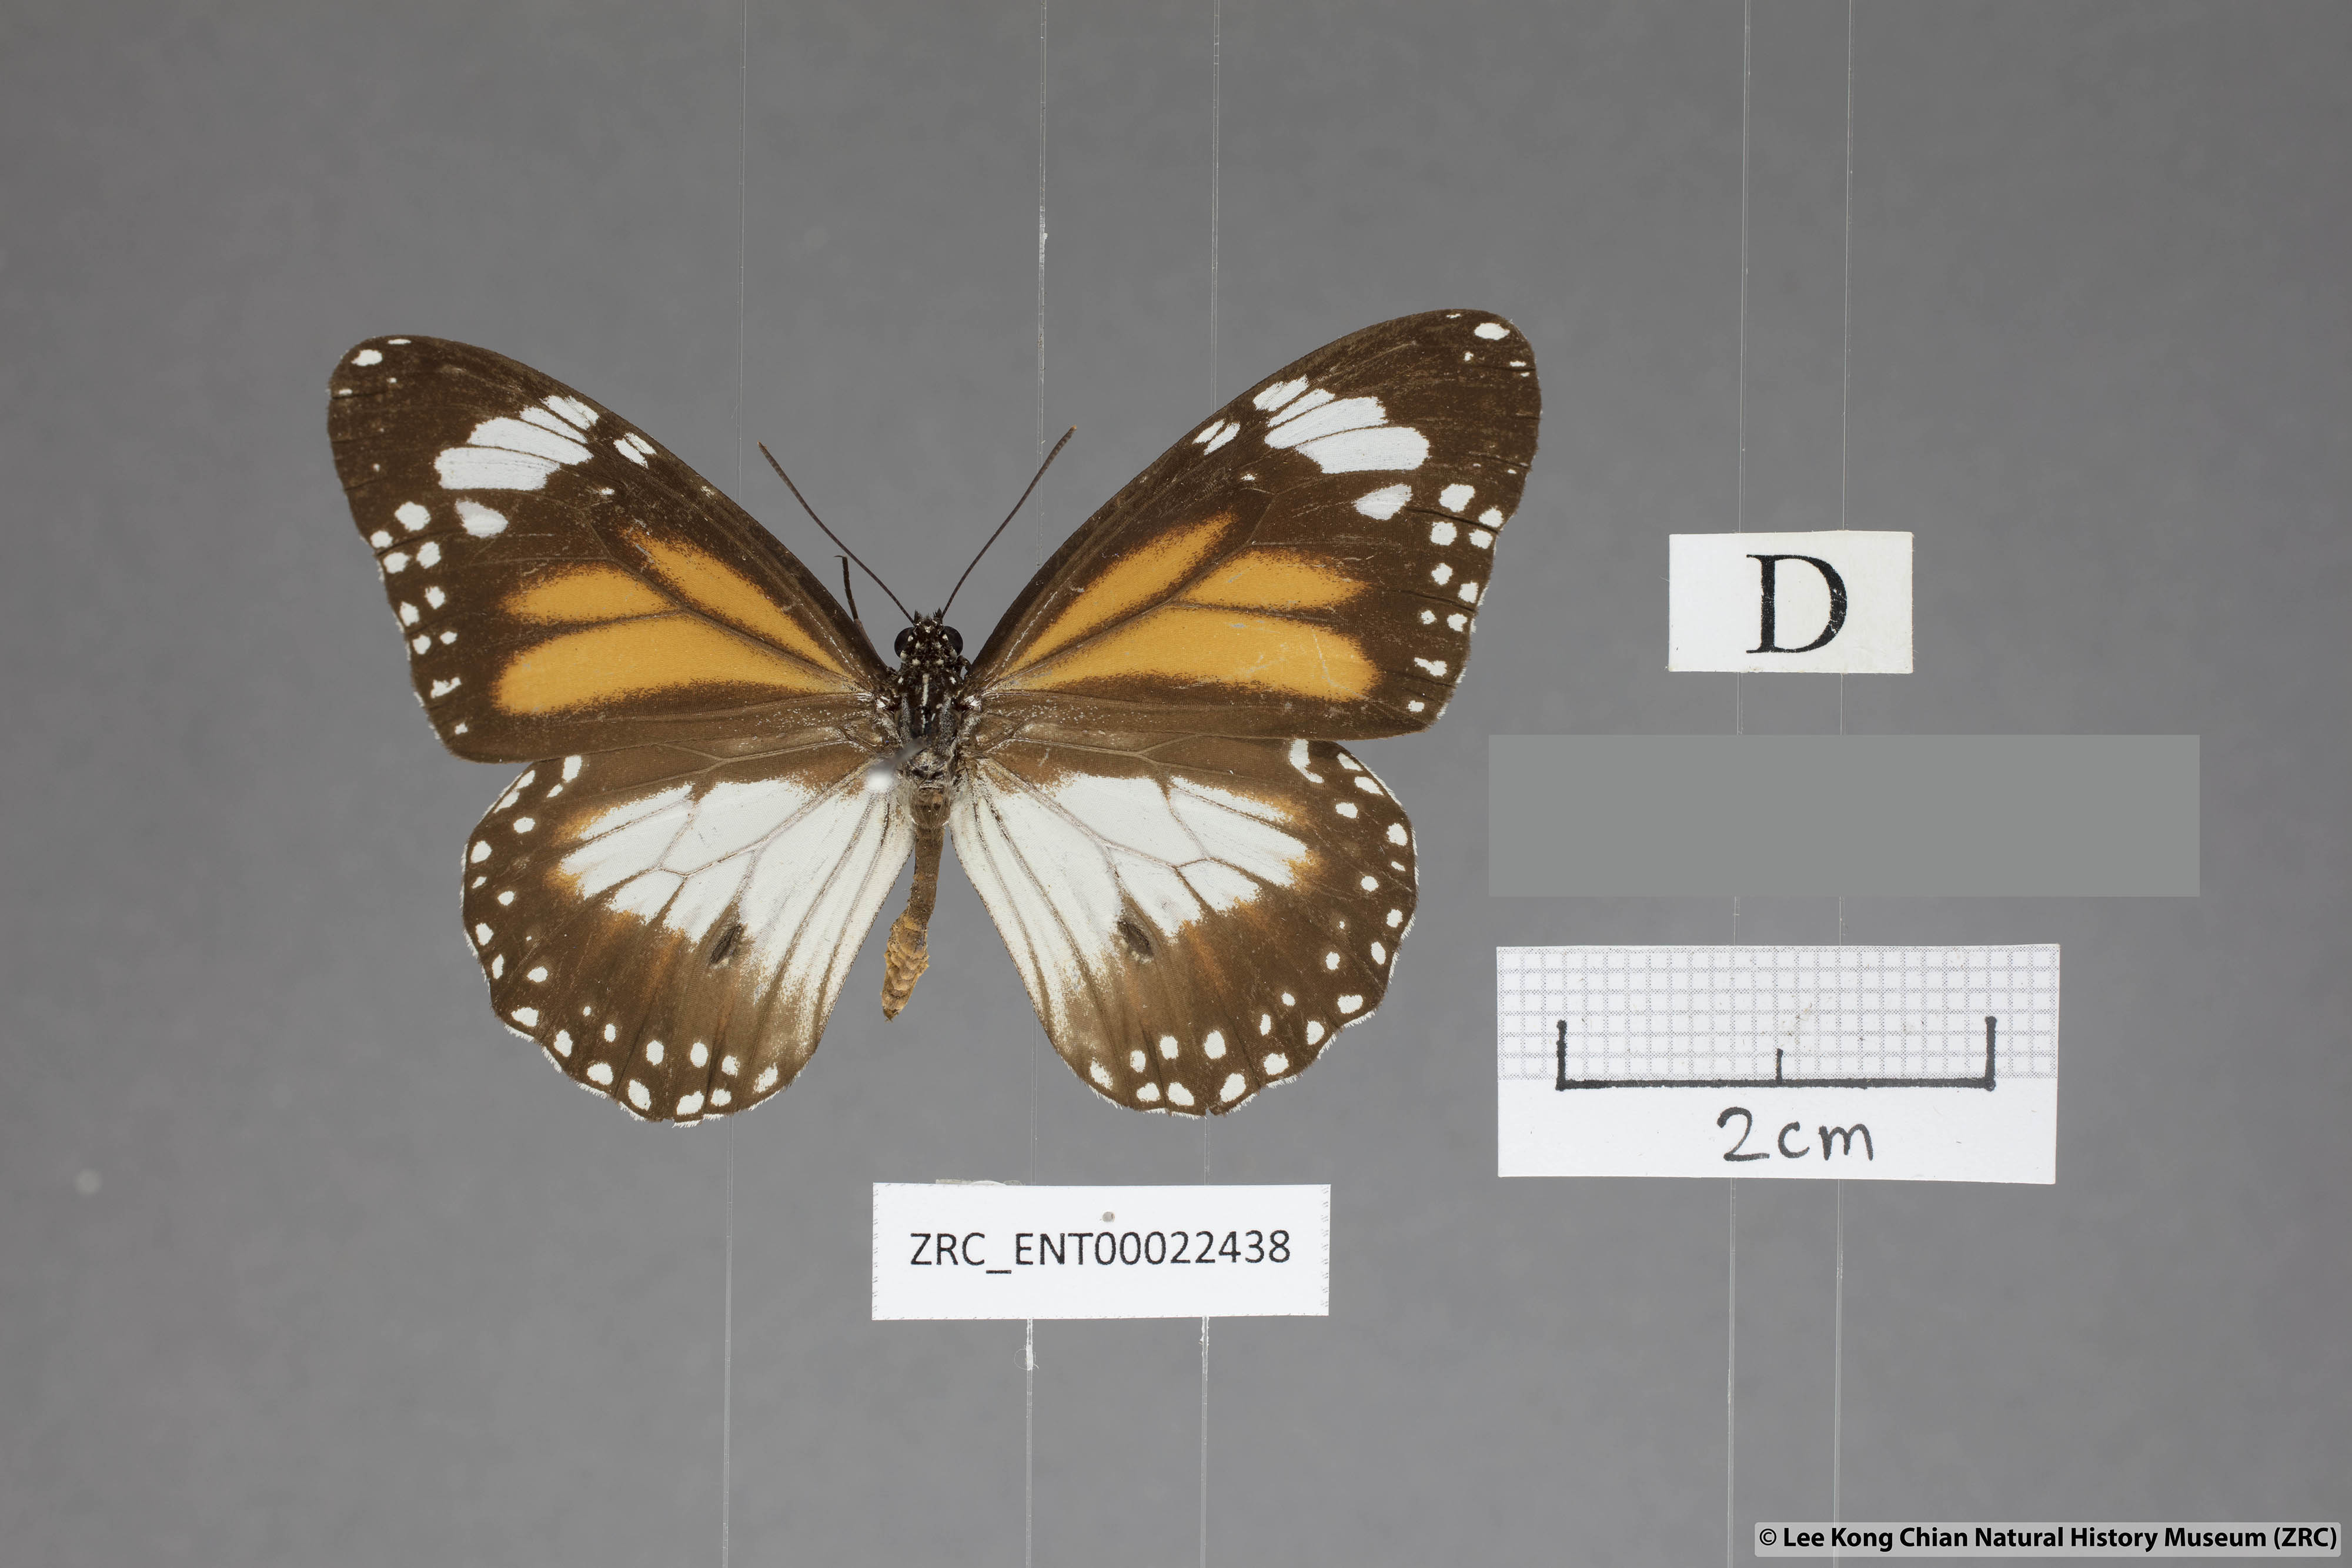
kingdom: Animalia
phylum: Arthropoda
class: Insecta
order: Lepidoptera
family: Nymphalidae
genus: Danaus
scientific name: Danaus affinis
